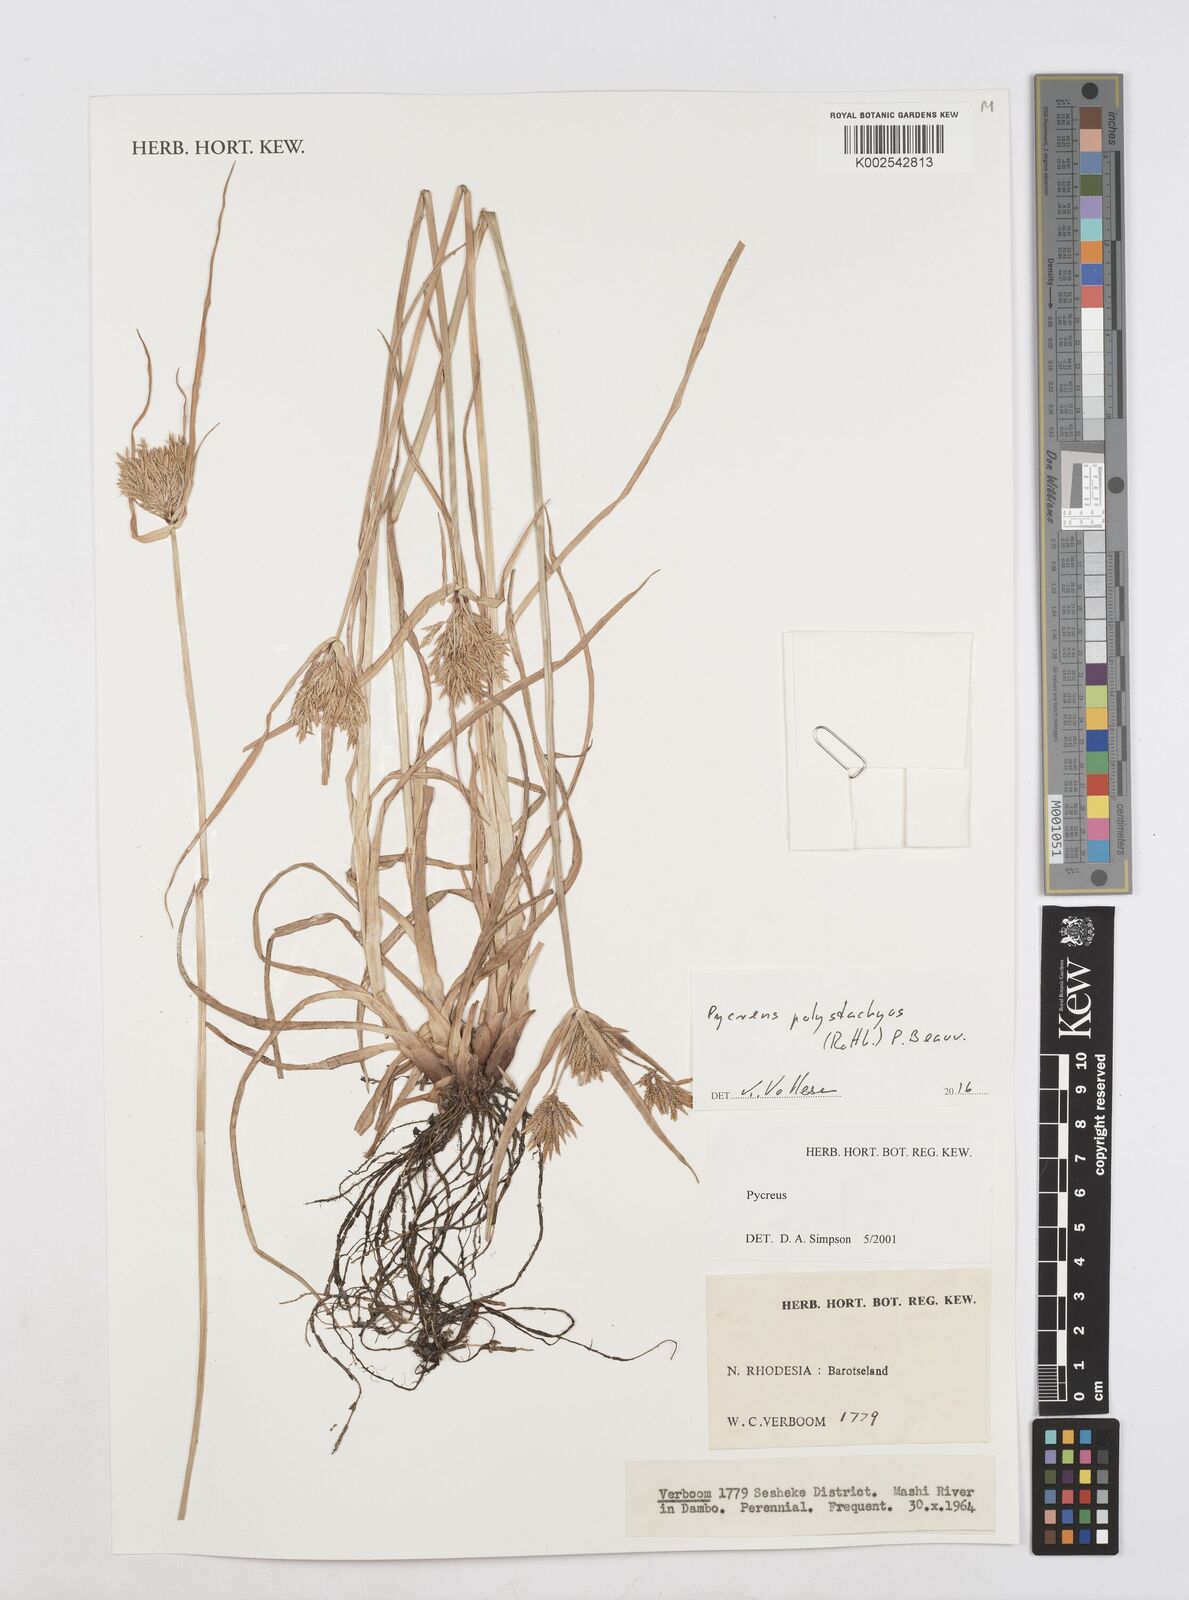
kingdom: Plantae
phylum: Tracheophyta
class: Liliopsida
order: Poales
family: Cyperaceae
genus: Cyperus
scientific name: Cyperus polystachyos
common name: Bunchy flat sedge
